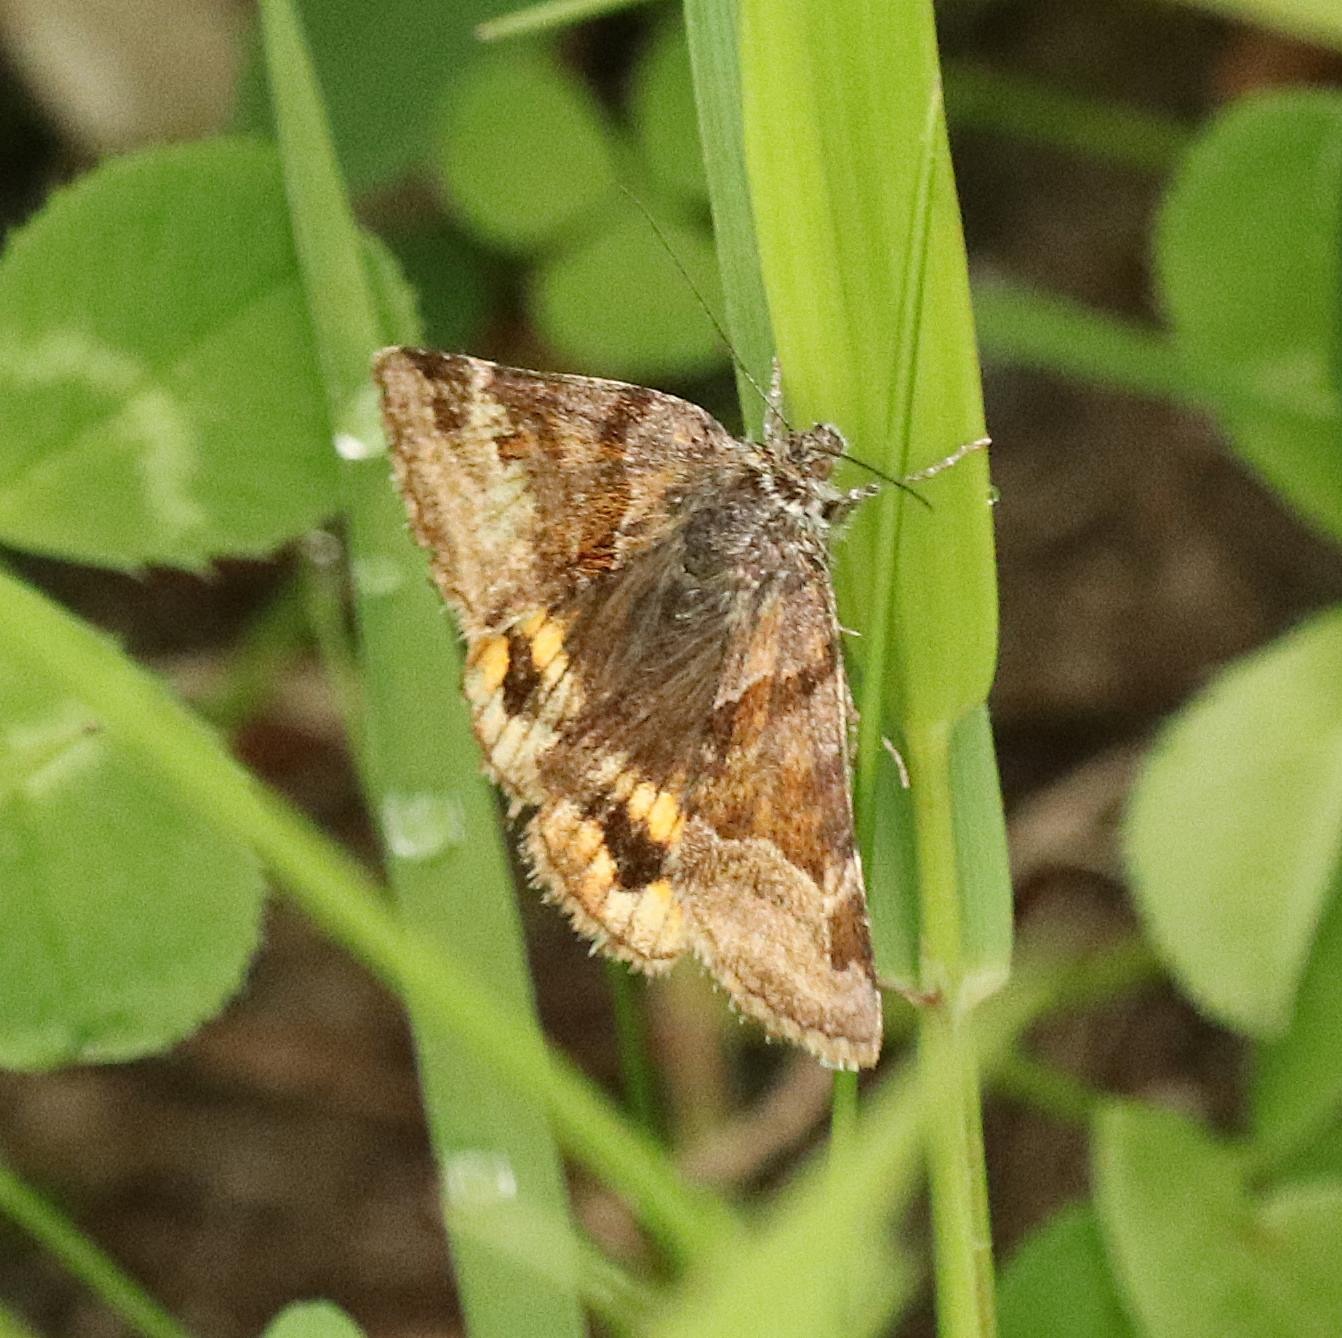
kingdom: Animalia
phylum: Arthropoda
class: Insecta
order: Lepidoptera
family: Erebidae
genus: Euclidia
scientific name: Euclidia glyphica
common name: Brun kløverugle
